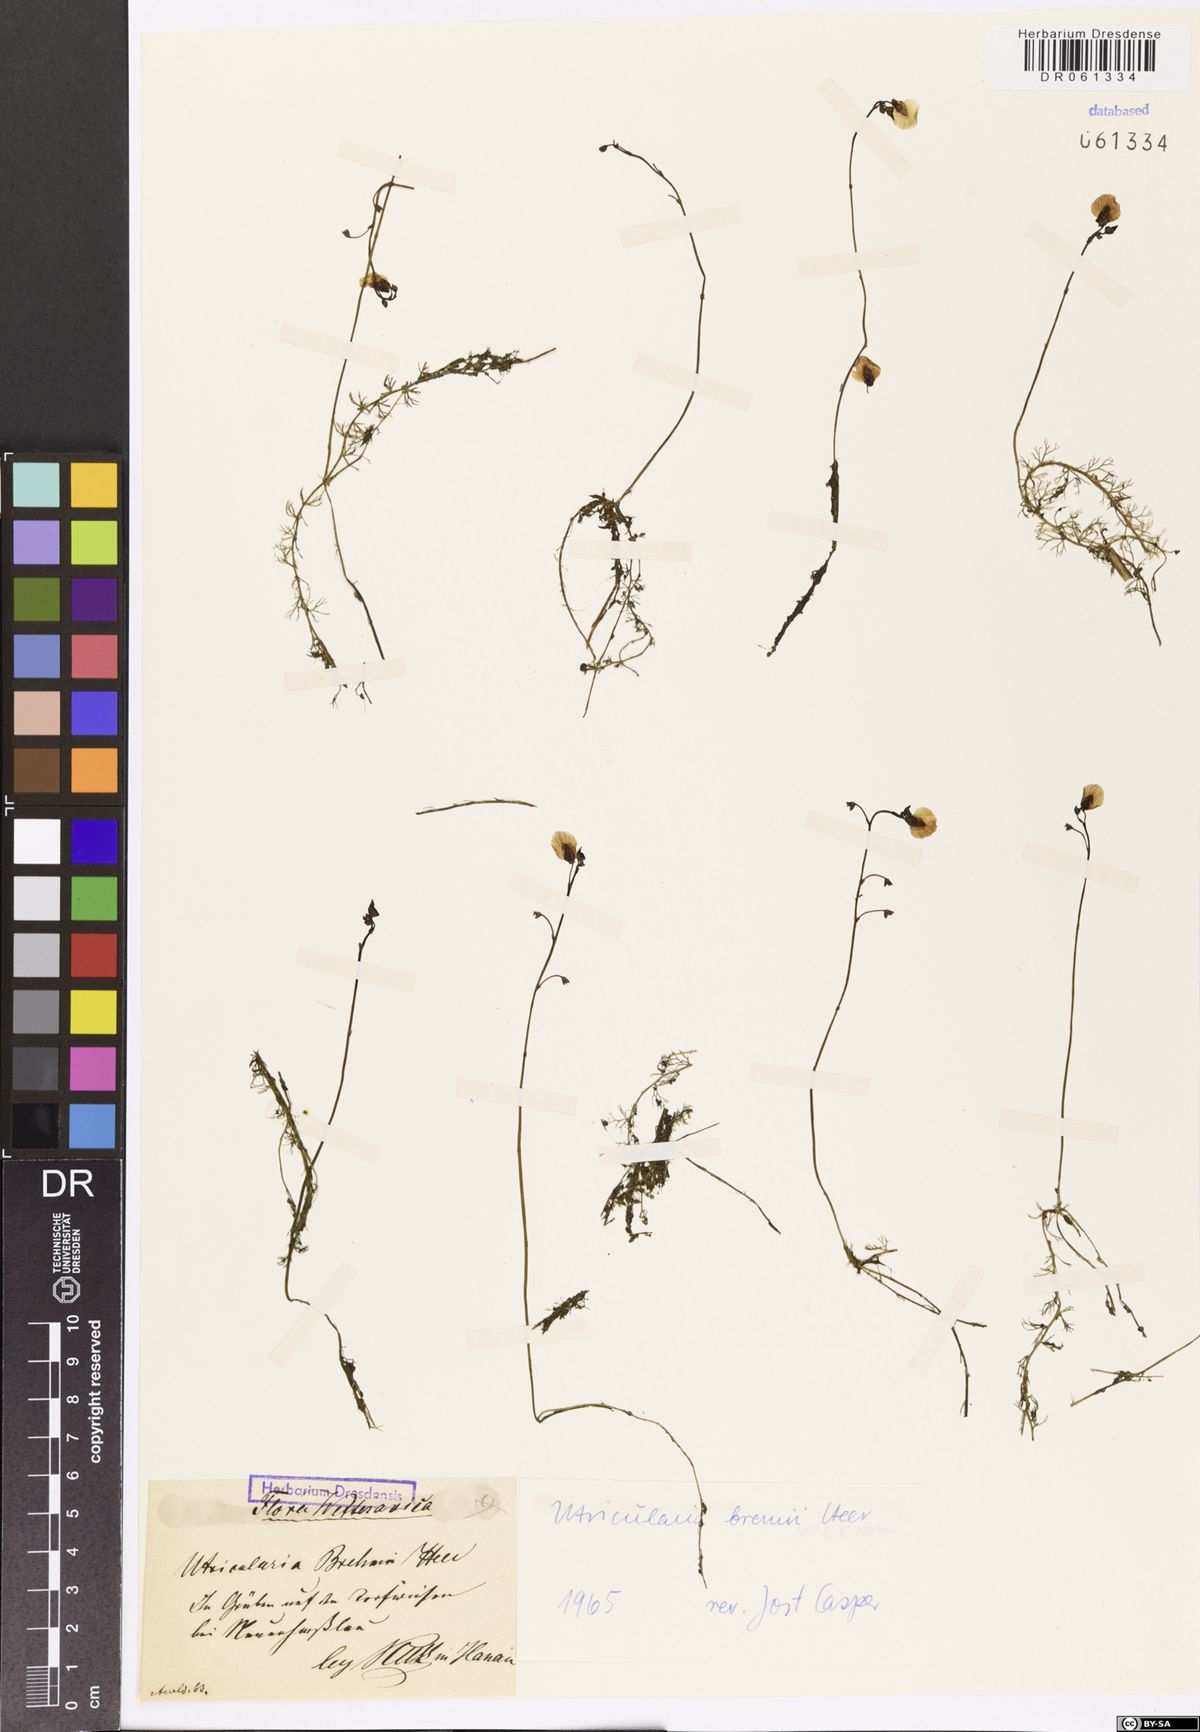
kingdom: Plantae
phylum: Tracheophyta
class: Magnoliopsida
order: Lamiales
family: Lentibulariaceae
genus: Utricularia
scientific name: Utricularia bremii
